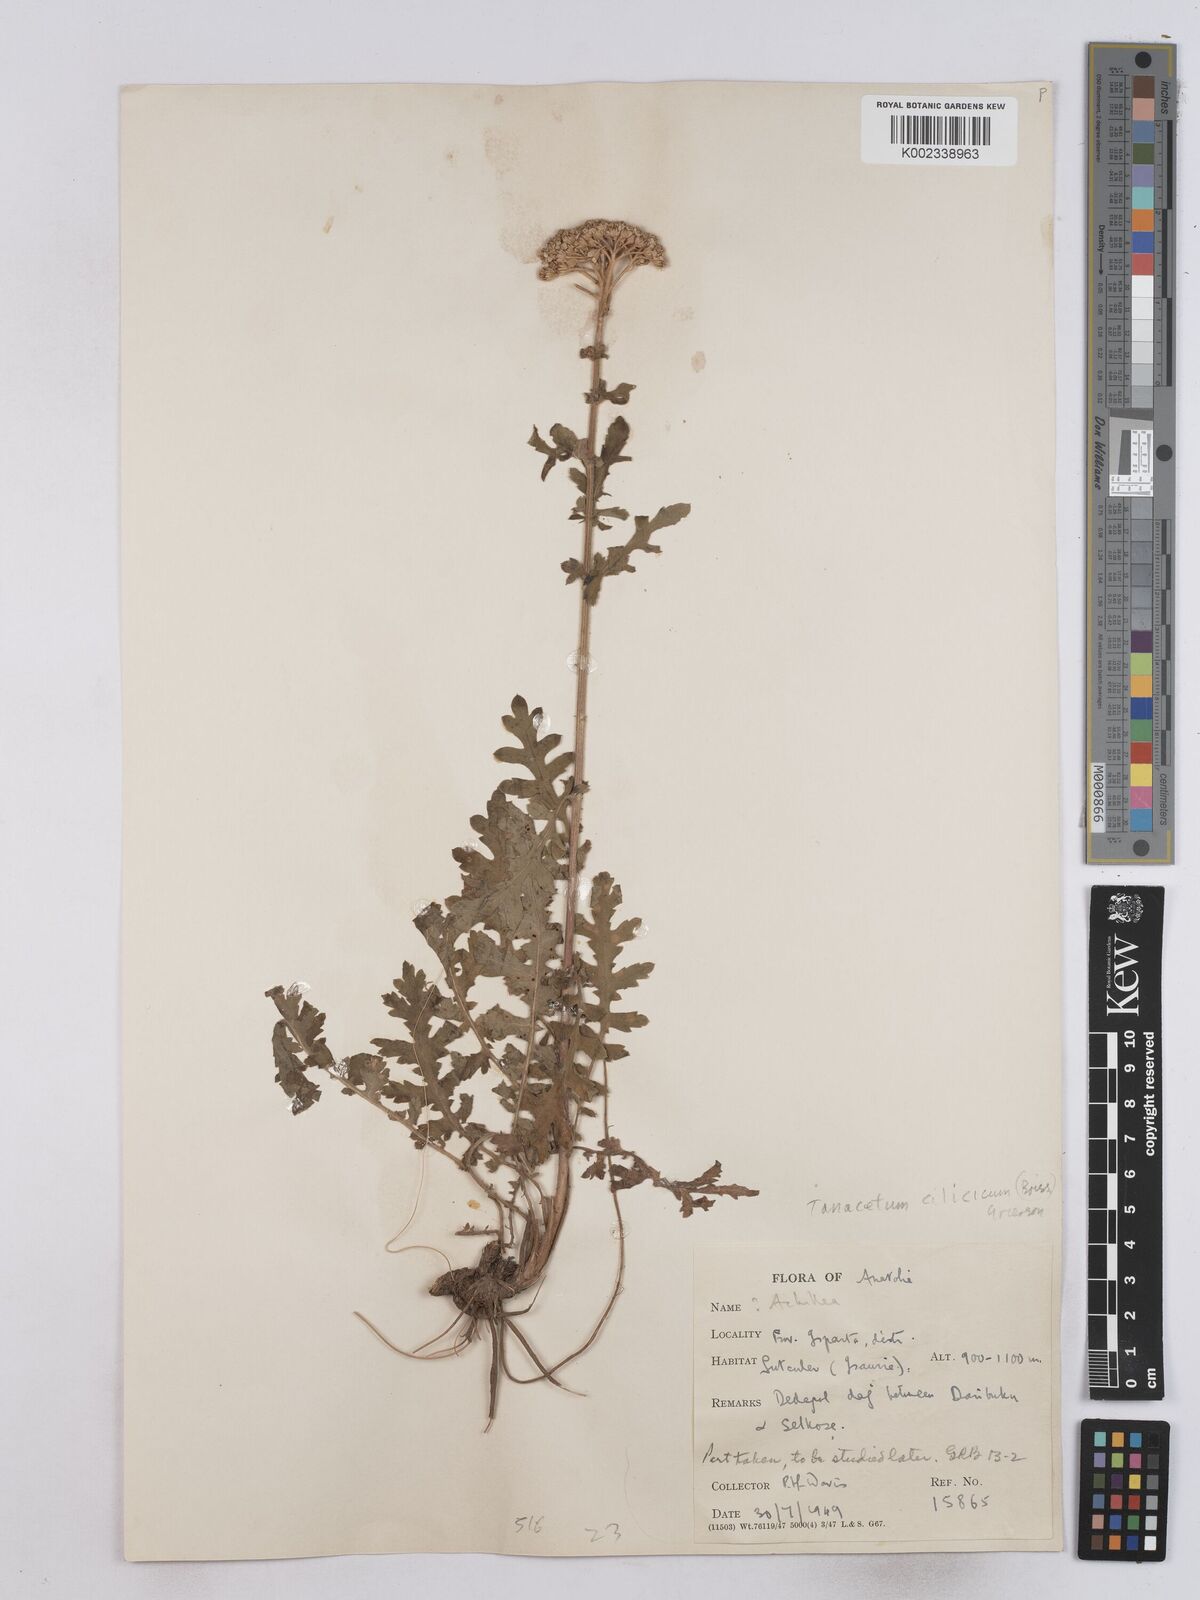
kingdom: Plantae
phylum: Tracheophyta
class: Magnoliopsida
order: Asterales
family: Asteraceae
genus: Tanacetum
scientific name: Tanacetum cilicicum
